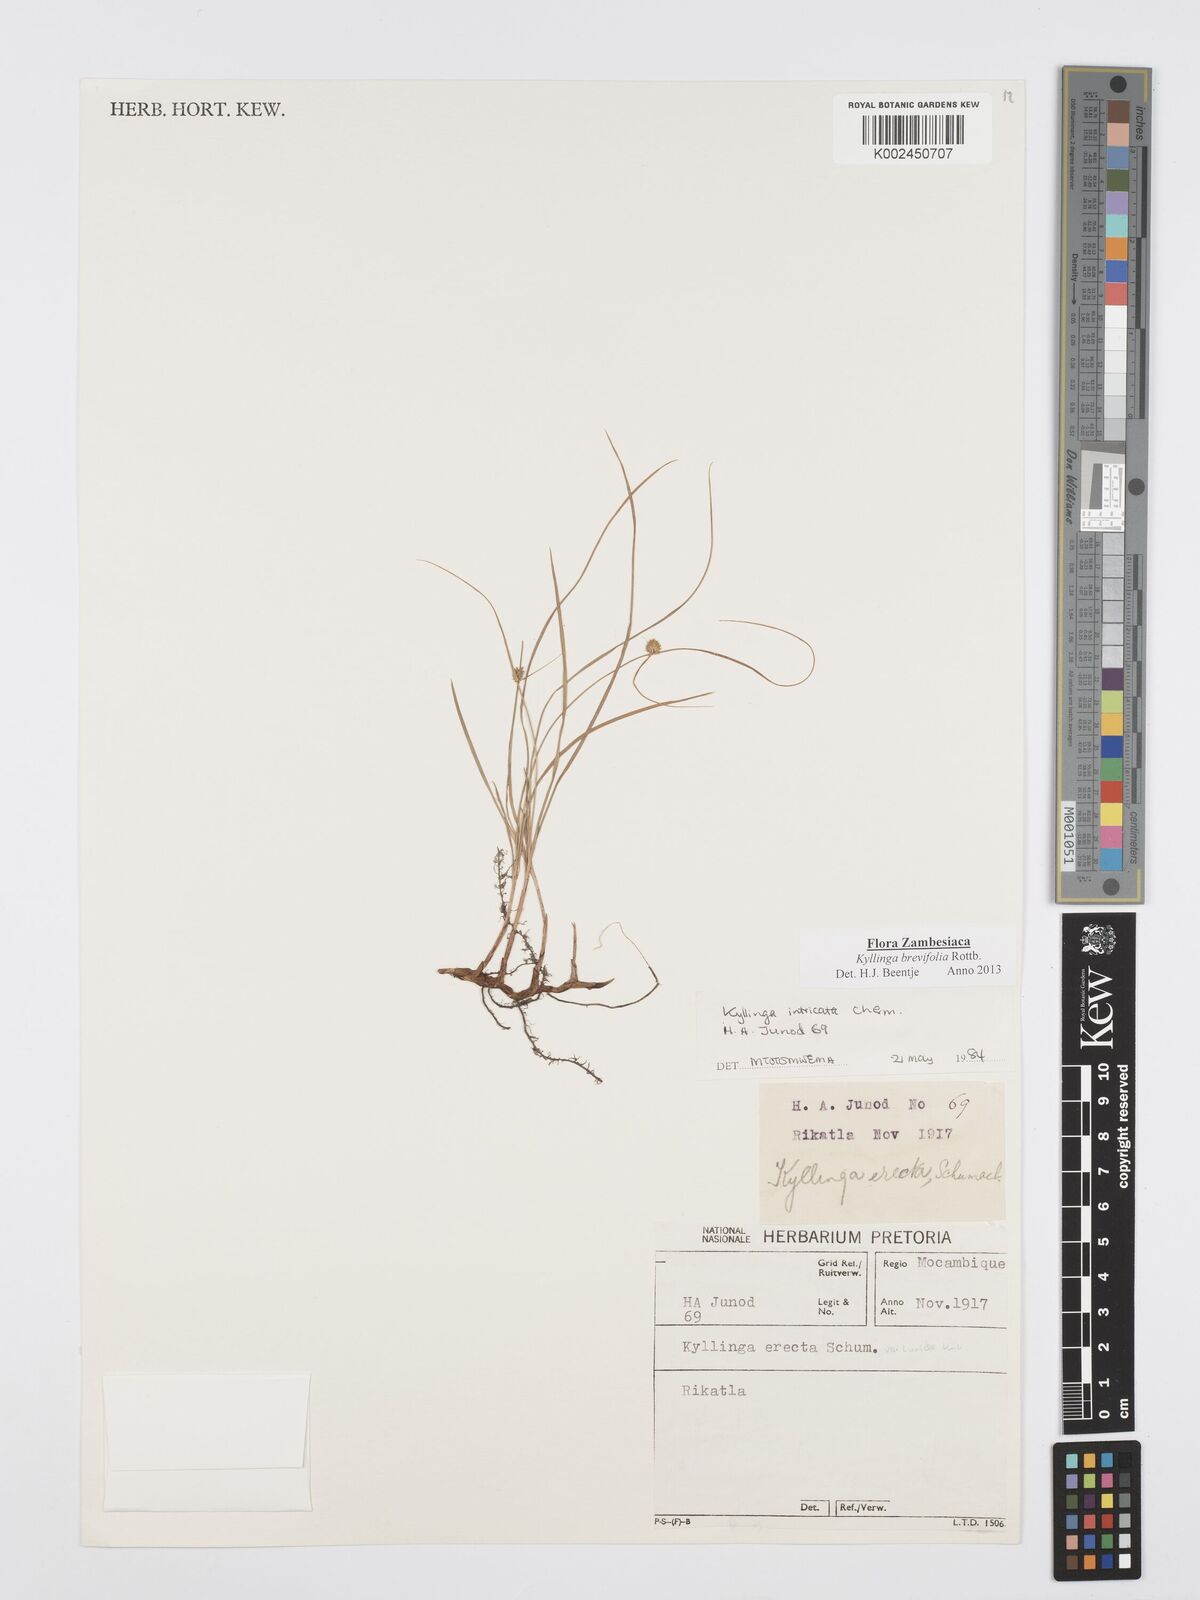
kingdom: Plantae
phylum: Tracheophyta
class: Liliopsida
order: Poales
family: Cyperaceae
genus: Cyperus
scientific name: Cyperus brevifolius
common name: Globe kyllinga
